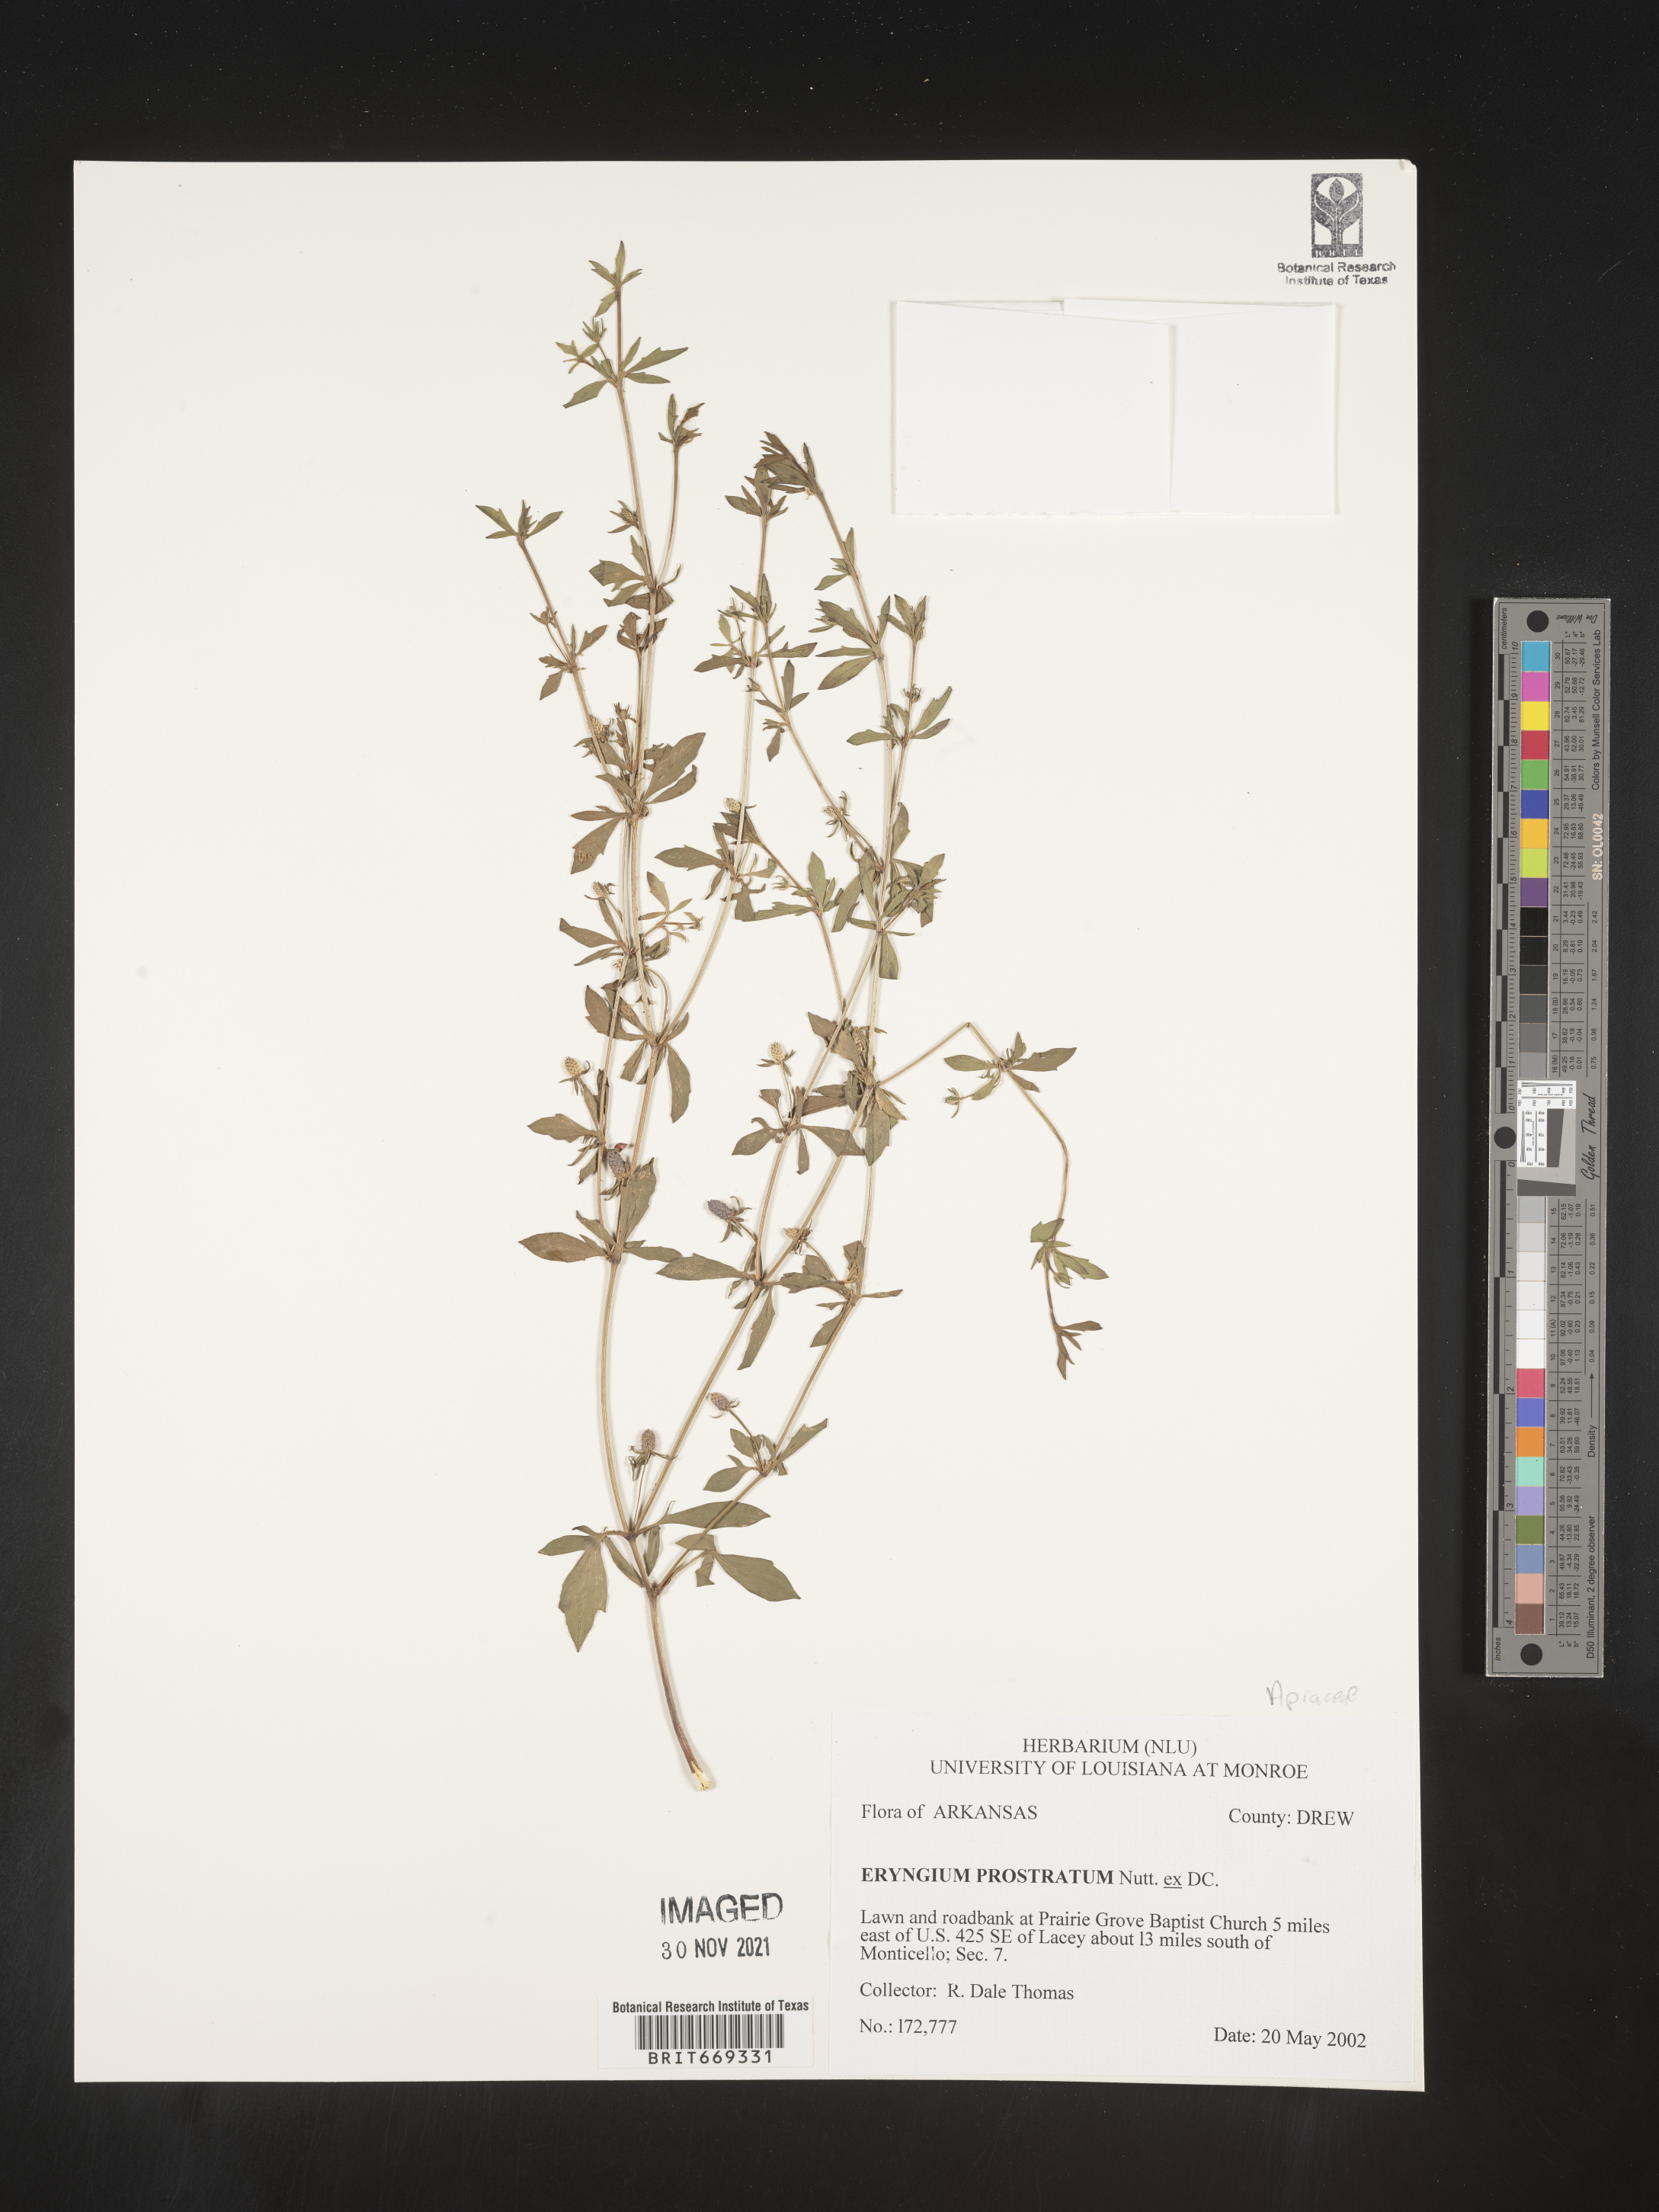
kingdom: Plantae
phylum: Tracheophyta
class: Magnoliopsida
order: Apiales
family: Apiaceae
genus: Eryngium
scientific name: Eryngium prostratum
